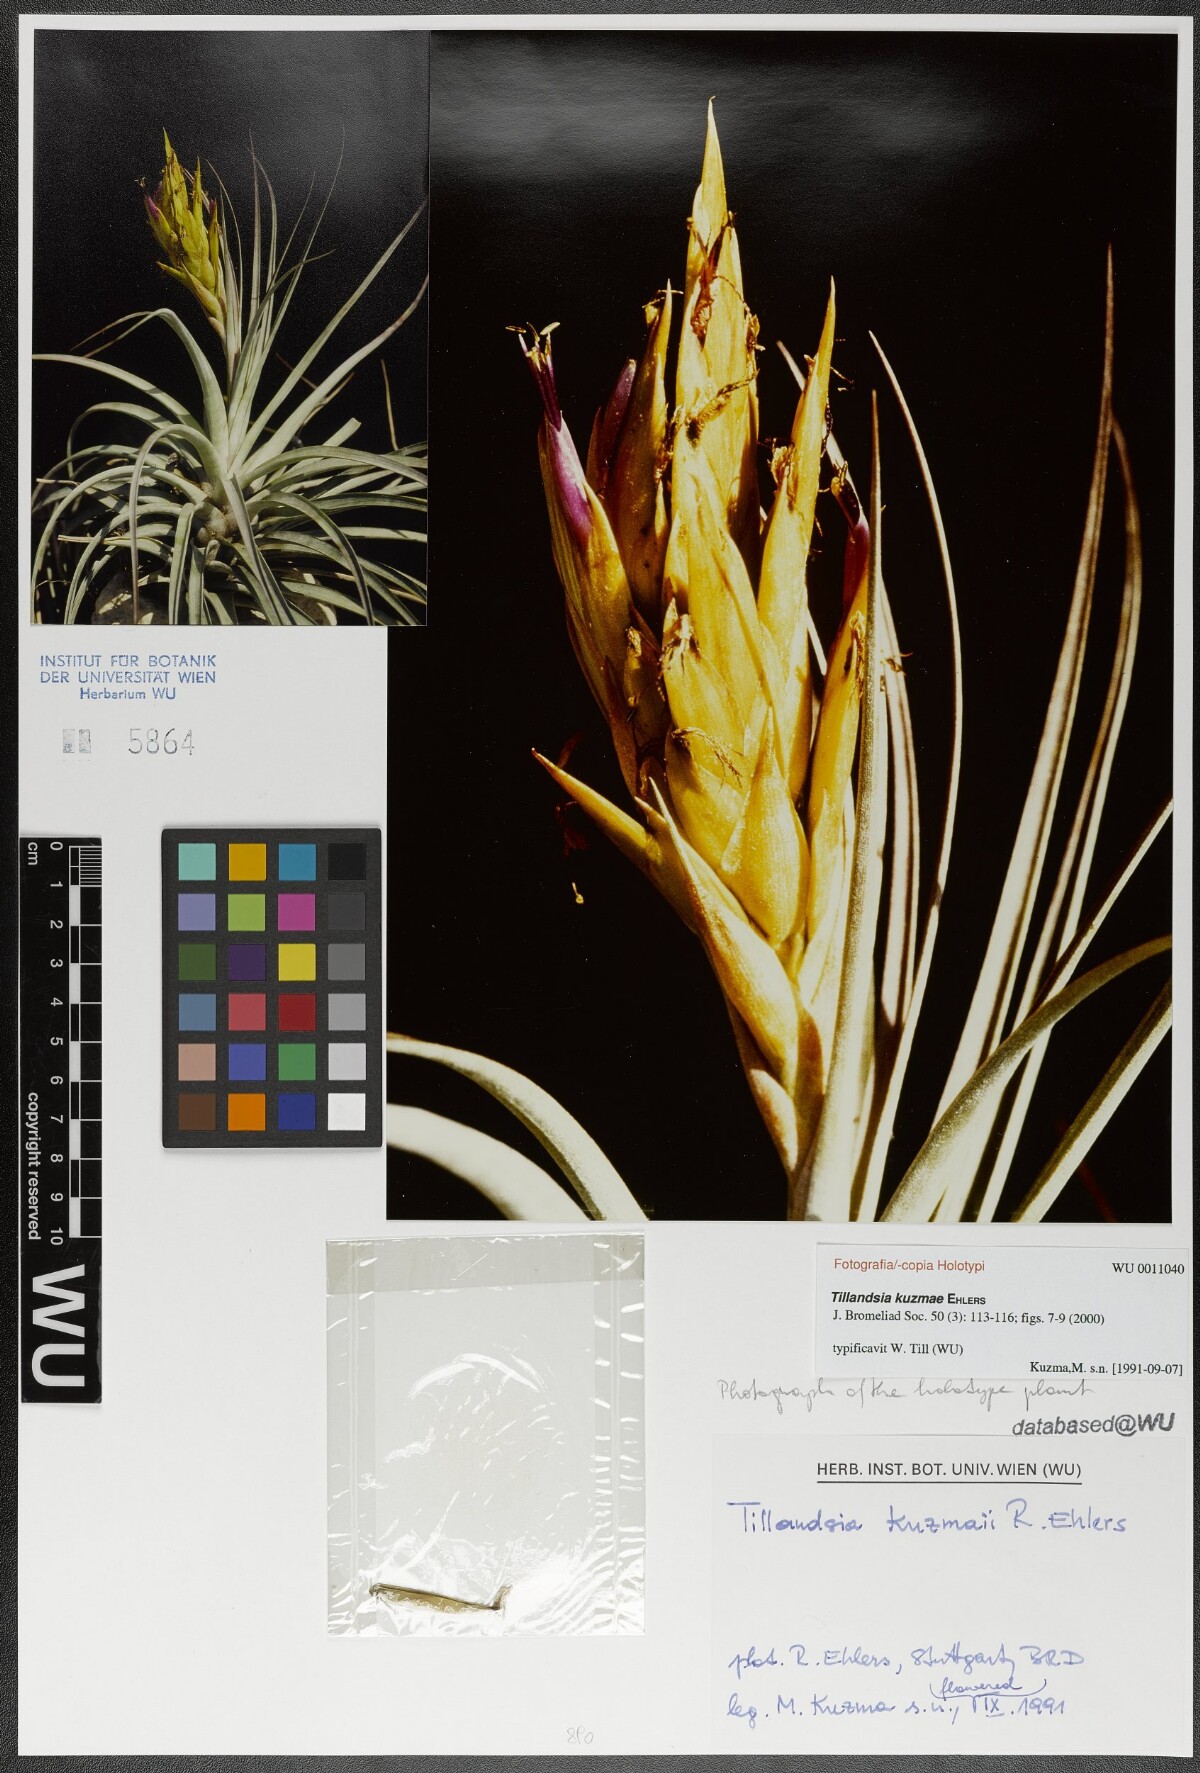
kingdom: Plantae
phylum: Tracheophyta
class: Liliopsida
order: Poales
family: Bromeliaceae
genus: Tillandsia
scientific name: Tillandsia kuzmae
